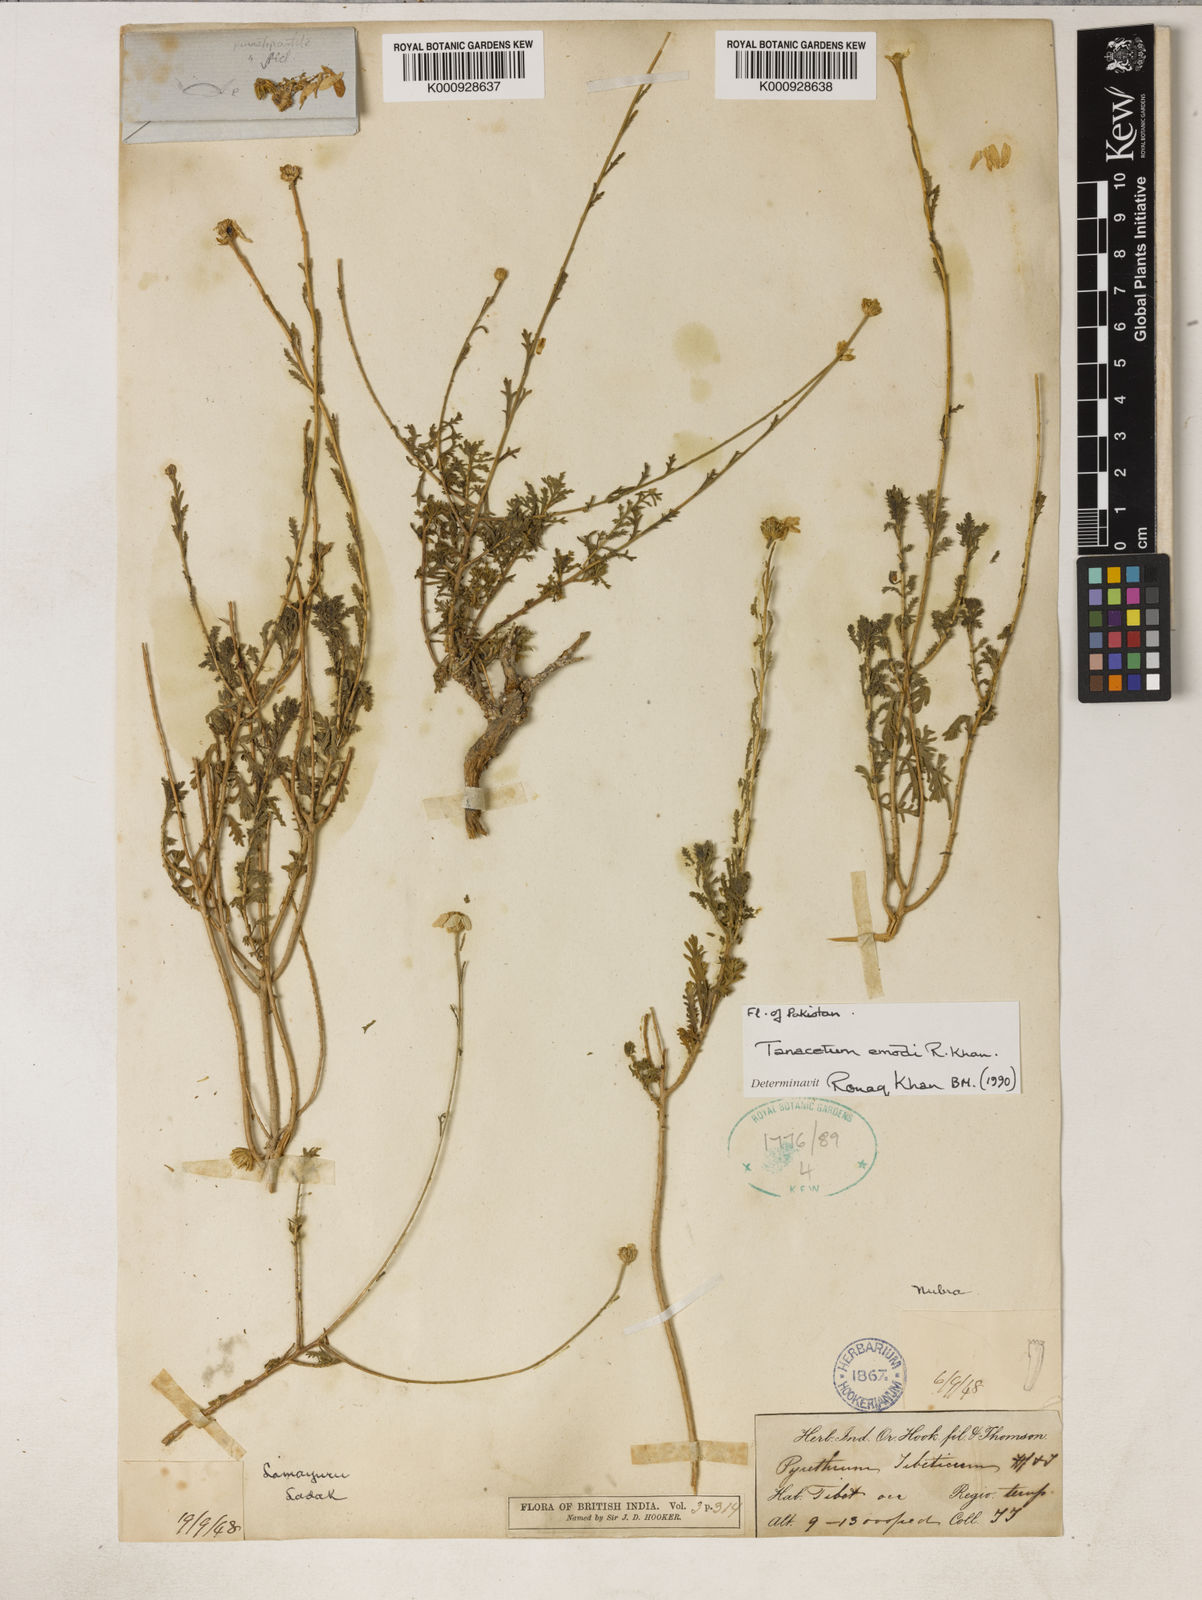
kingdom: Plantae
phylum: Tracheophyta
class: Magnoliopsida
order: Asterales
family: Asteraceae
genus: Tanacetum
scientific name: Tanacetum emodi
